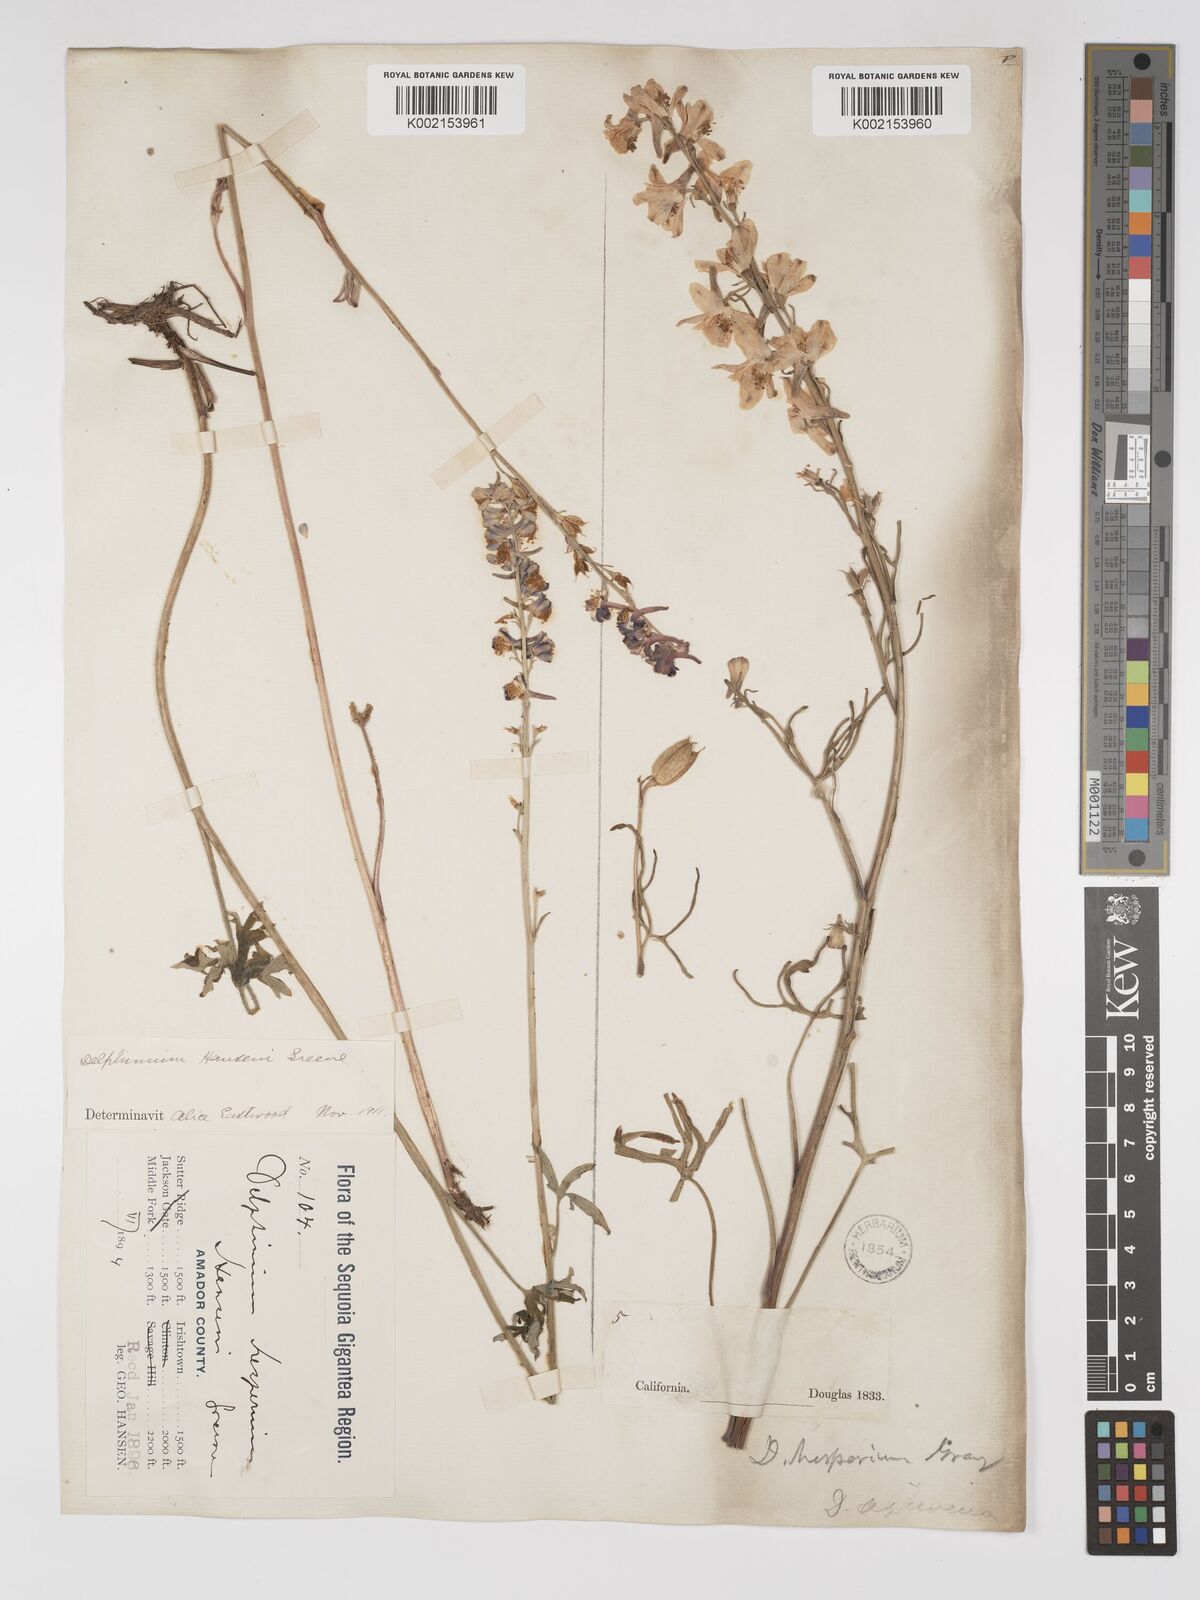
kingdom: Plantae
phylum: Tracheophyta
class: Magnoliopsida
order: Ranunculales
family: Ranunculaceae
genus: Delphinium
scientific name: Delphinium hansenii
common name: Hansen's larkspur
